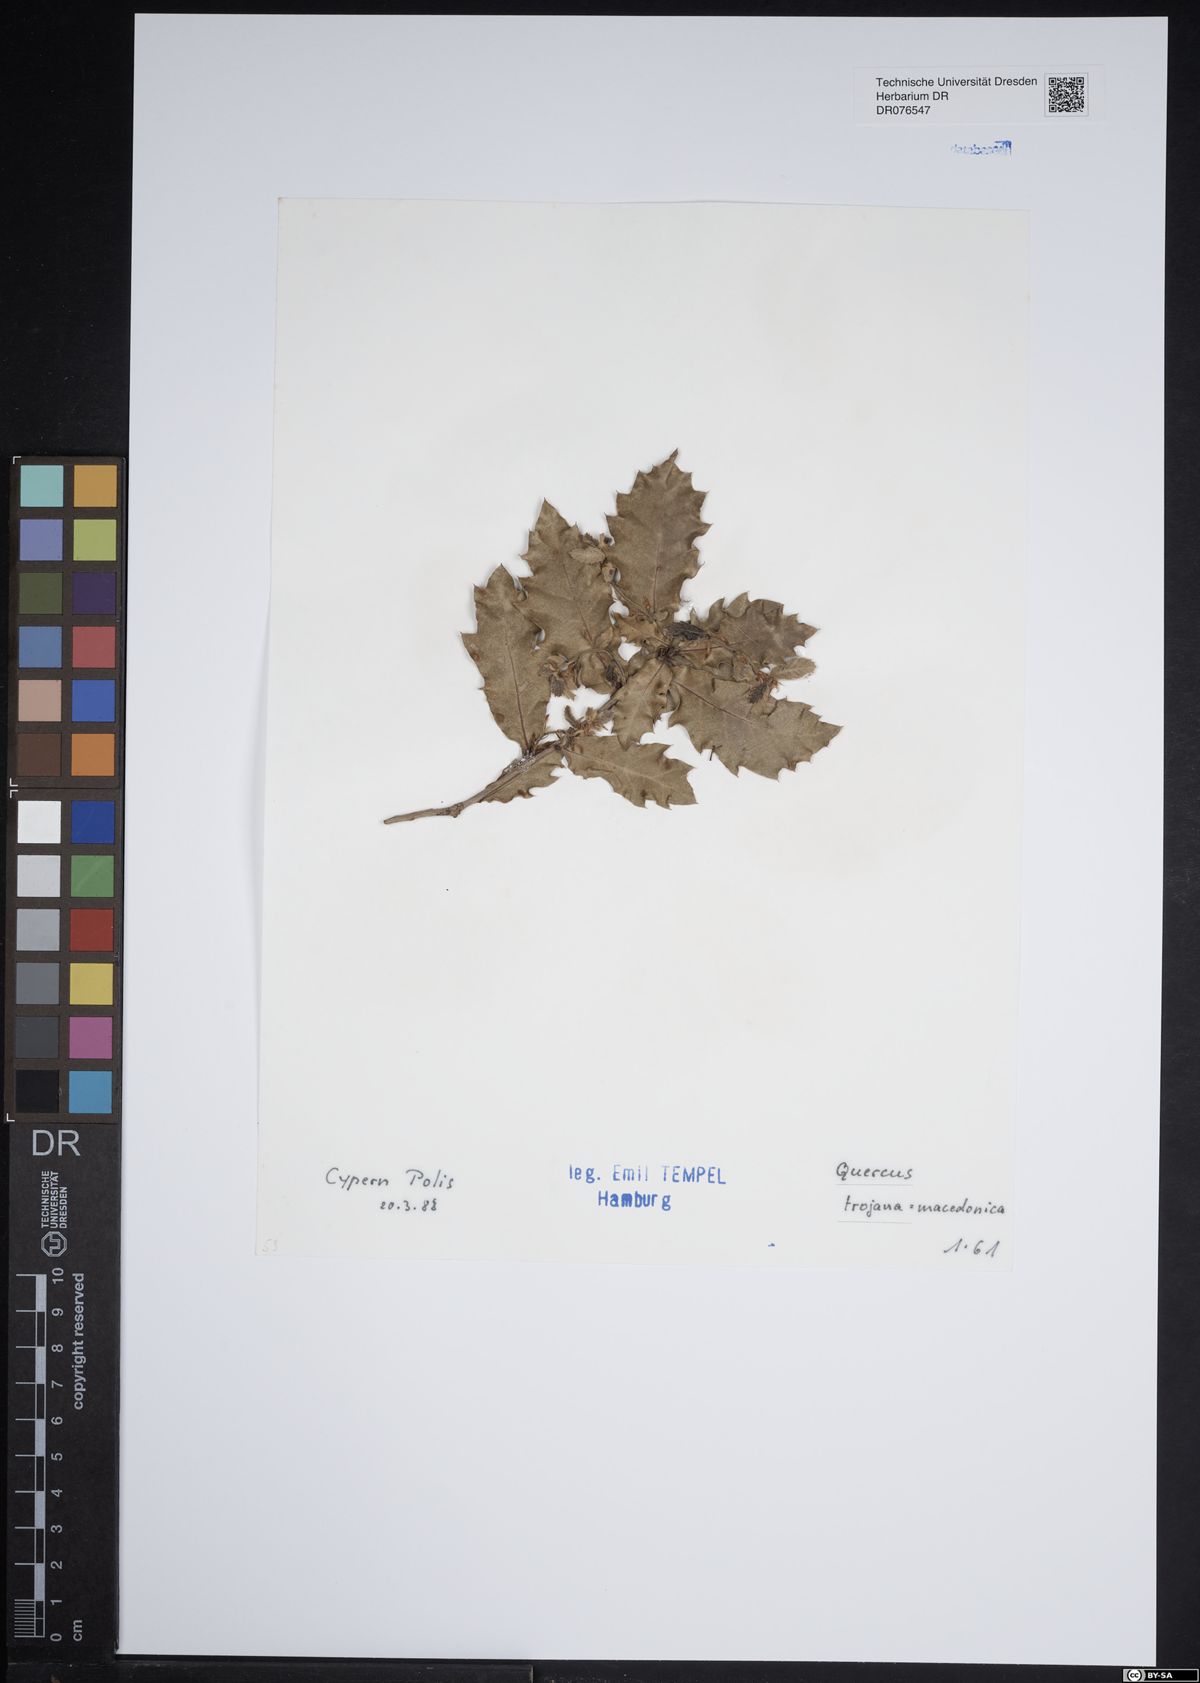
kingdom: Plantae
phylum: Tracheophyta
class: Magnoliopsida
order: Fagales
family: Fagaceae
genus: Quercus
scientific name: Quercus trojana
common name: Macedonian oak
